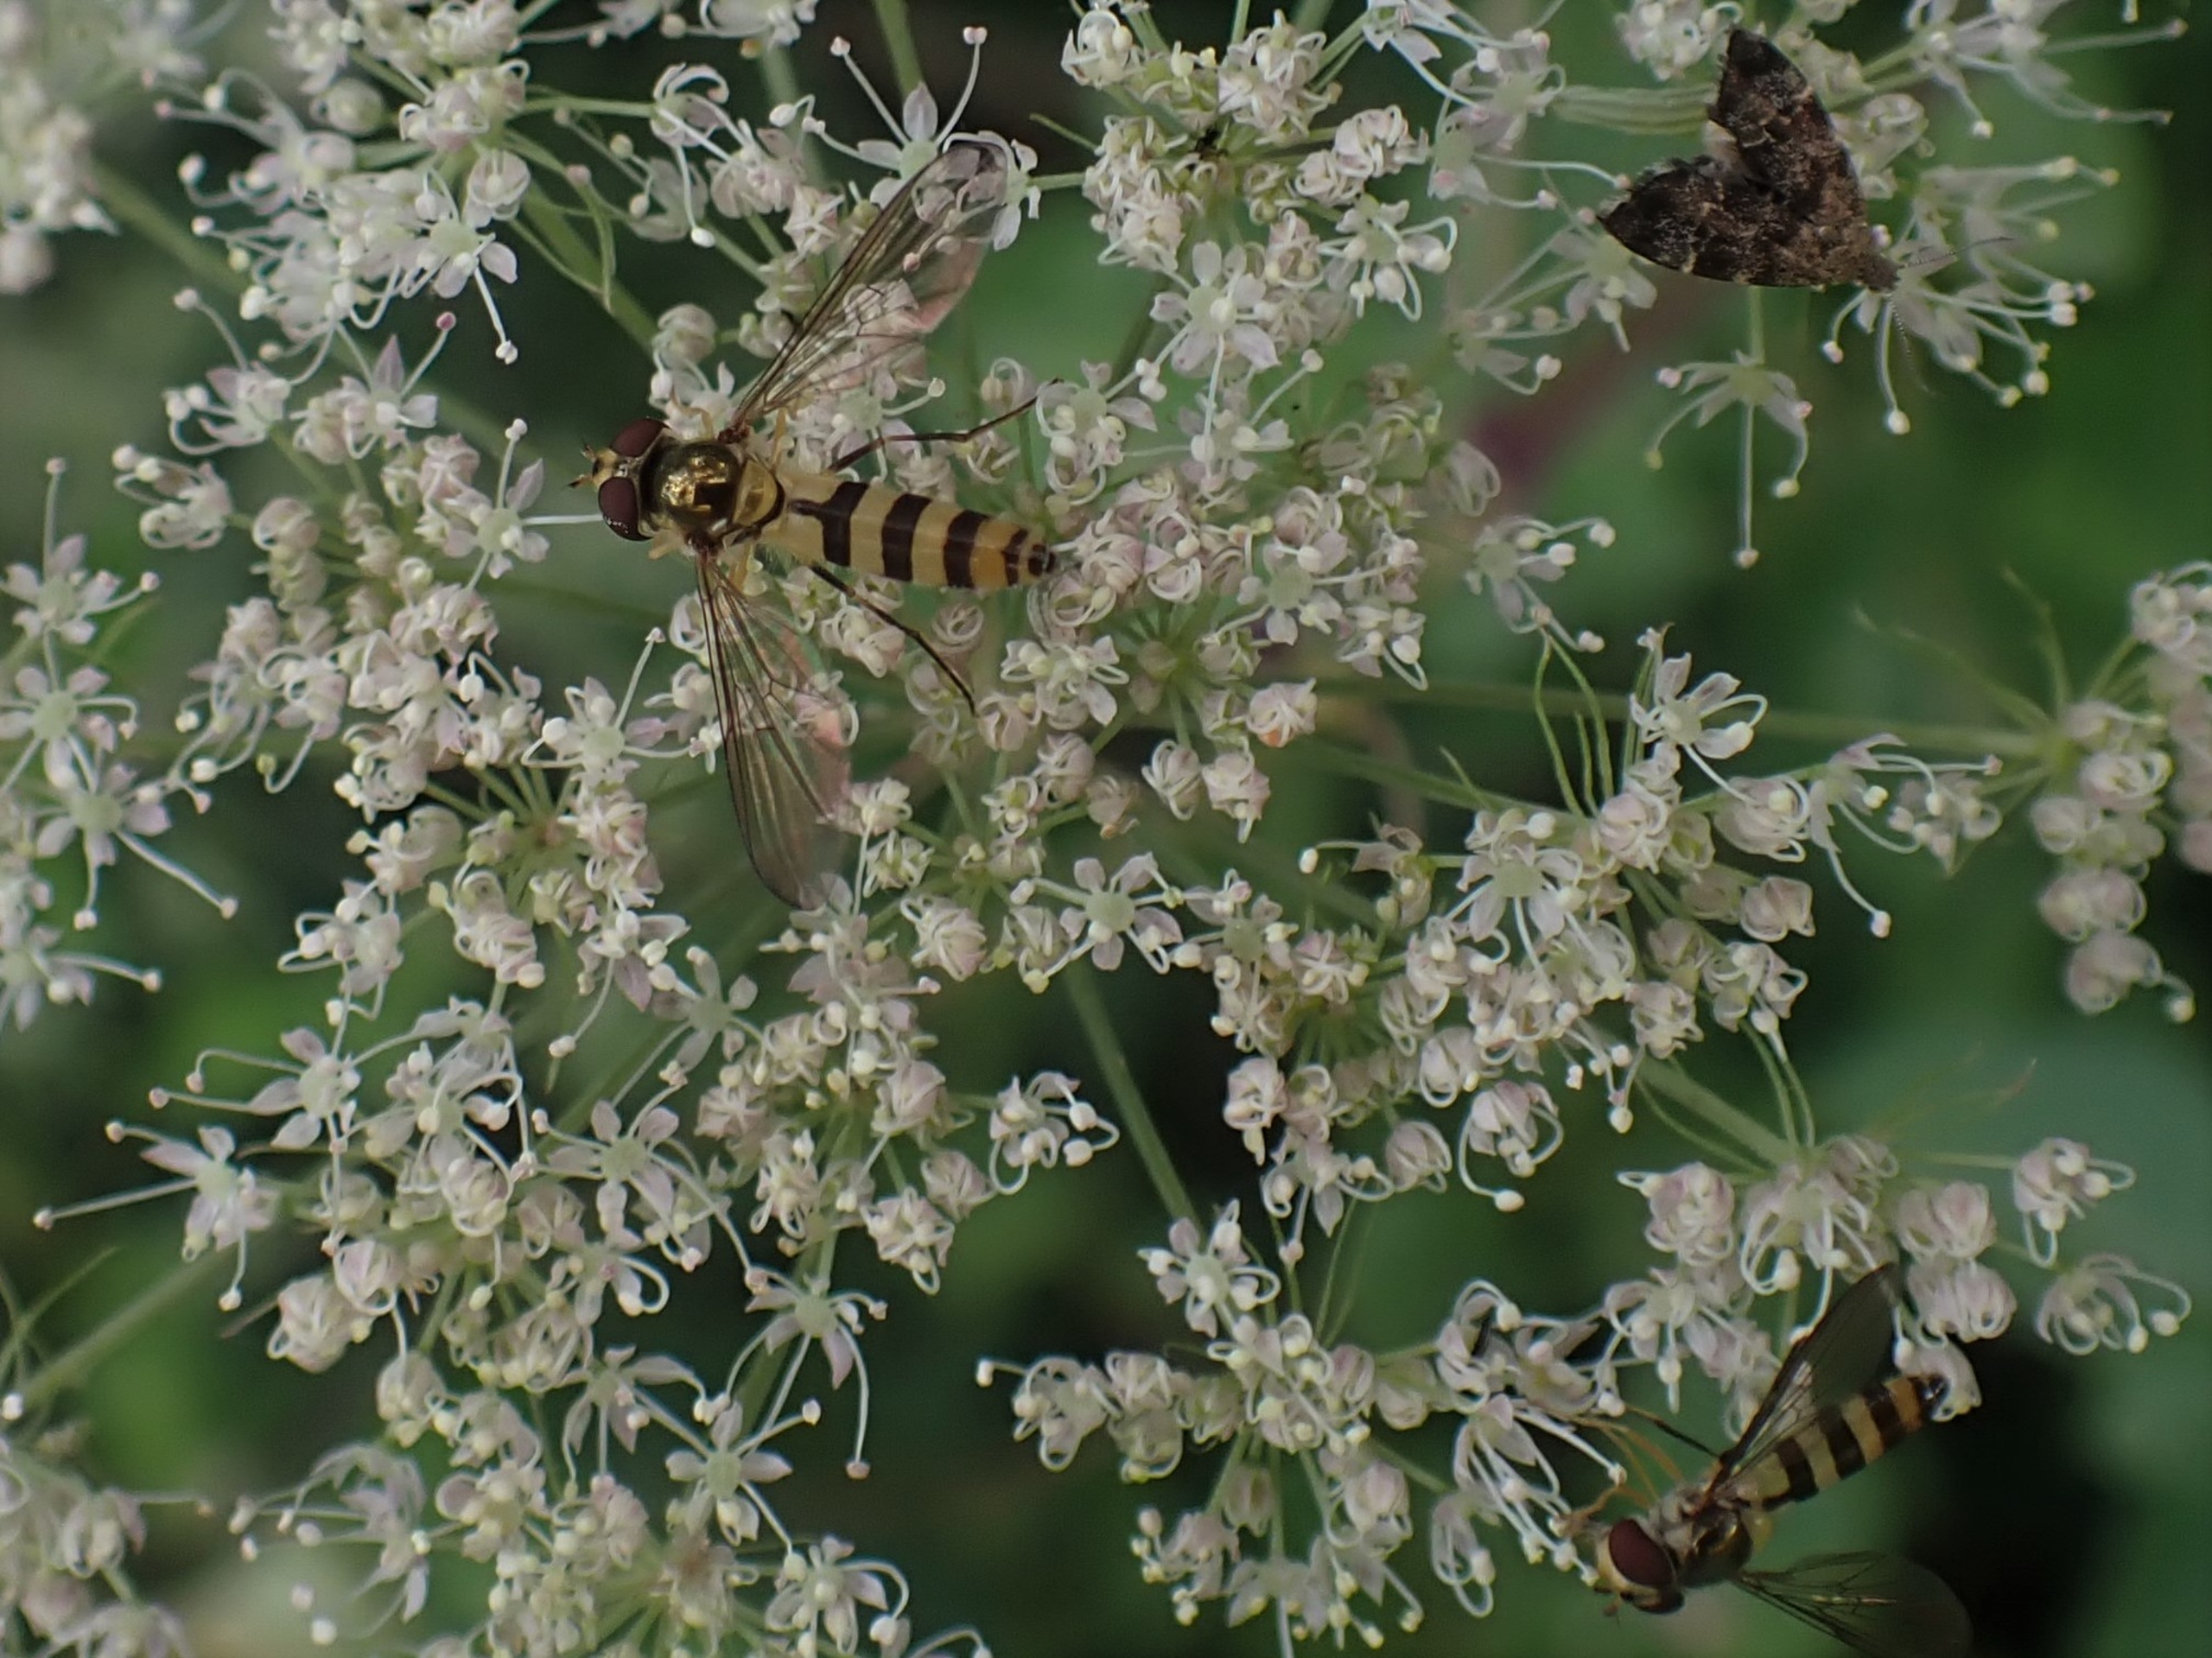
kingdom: Animalia
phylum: Arthropoda
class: Insecta
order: Diptera
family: Syrphidae
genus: Meliscaeva
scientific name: Meliscaeva cinctella
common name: Bælte-svirreflue
